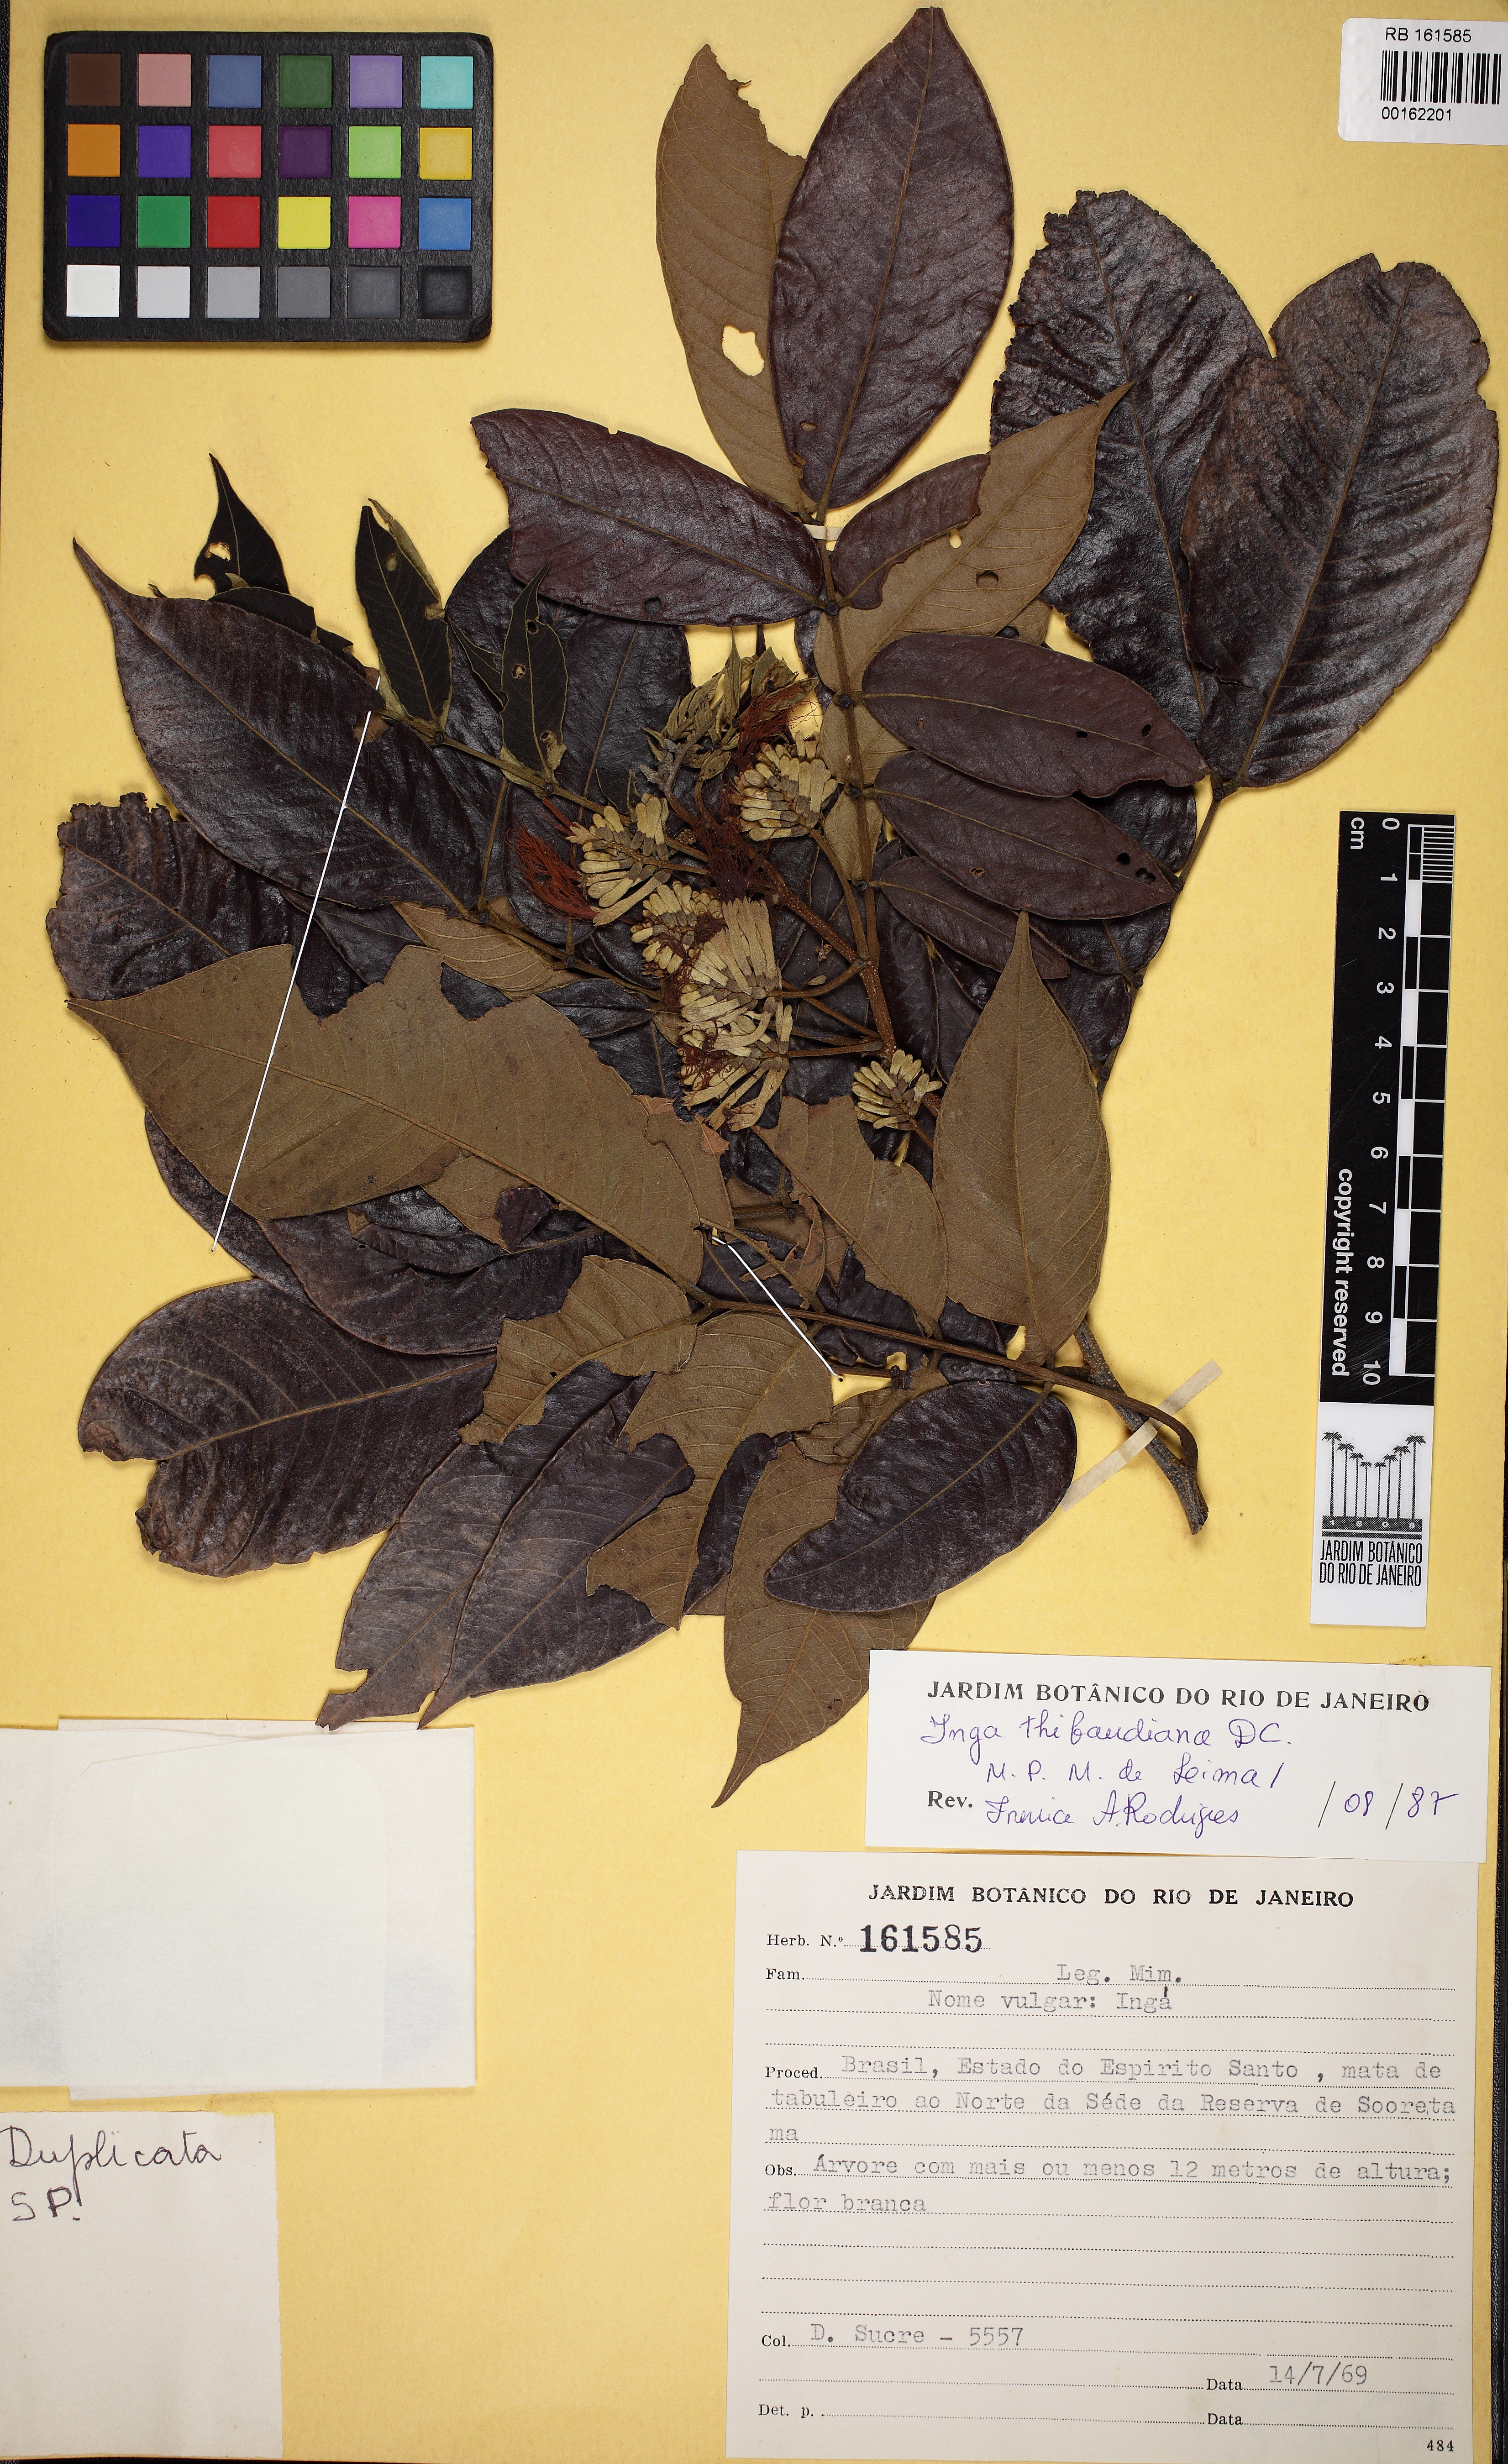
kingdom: Plantae
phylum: Tracheophyta
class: Magnoliopsida
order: Fabales
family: Fabaceae
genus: Inga
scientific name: Inga thibaudiana
